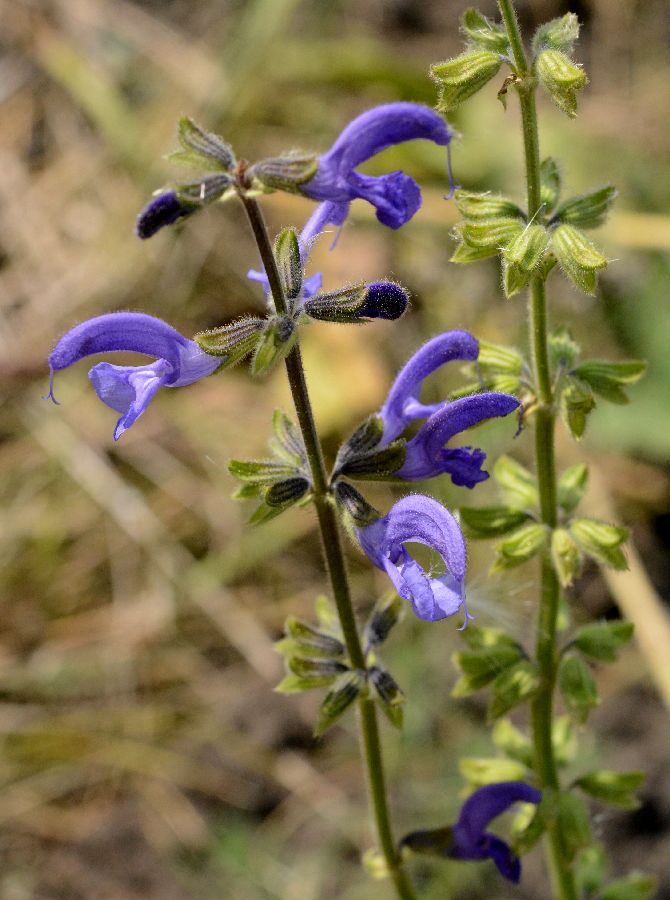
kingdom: Plantae
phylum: Tracheophyta
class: Magnoliopsida
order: Lamiales
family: Lamiaceae
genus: Salvia
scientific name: Salvia pratensis
